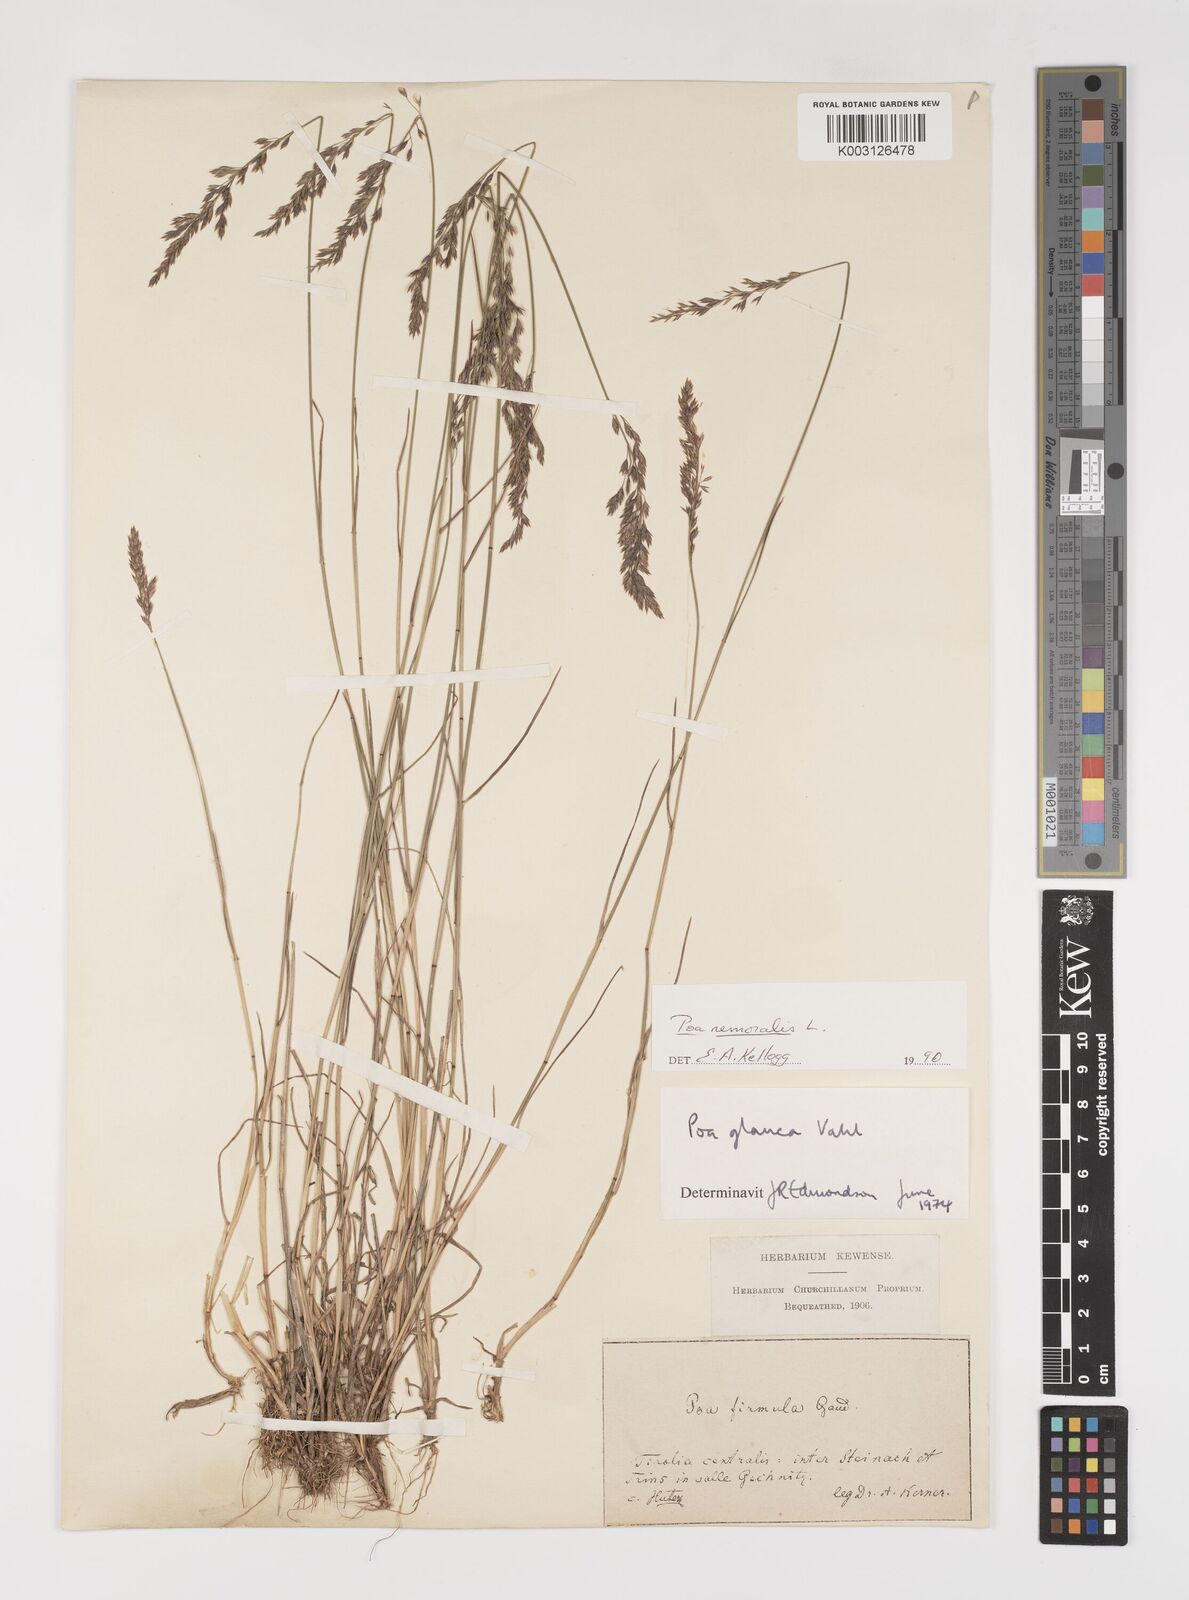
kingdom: Plantae
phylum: Tracheophyta
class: Liliopsida
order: Poales
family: Poaceae
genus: Poa
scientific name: Poa
